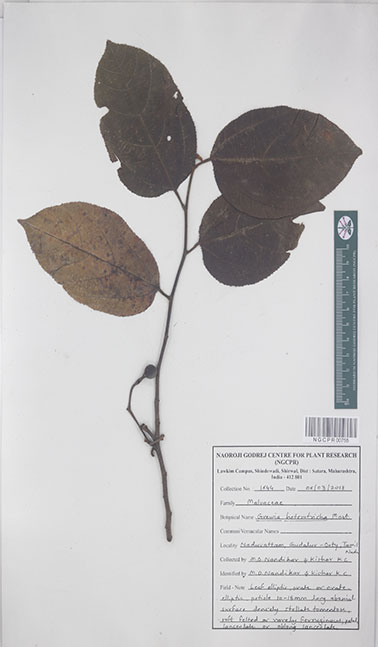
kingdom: Plantae
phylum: Tracheophyta
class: Magnoliopsida
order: Malvales
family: Malvaceae
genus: Grewia
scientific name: Grewia heterotricha
